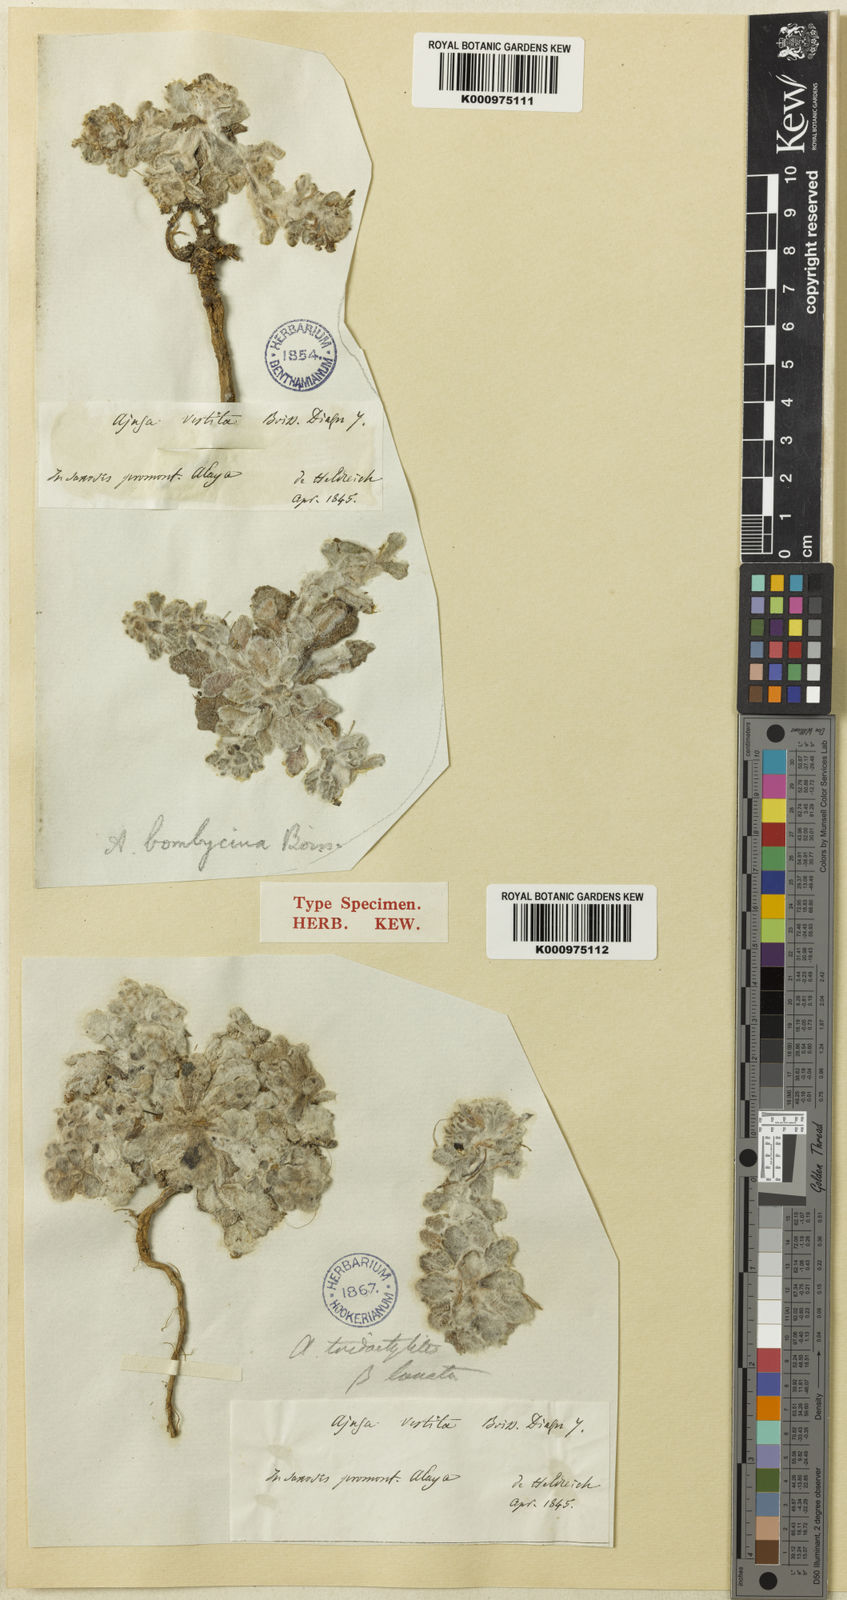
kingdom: Plantae
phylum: Tracheophyta
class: Magnoliopsida
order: Lamiales
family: Lamiaceae
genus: Ajuga
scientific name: Ajuga bombycina
